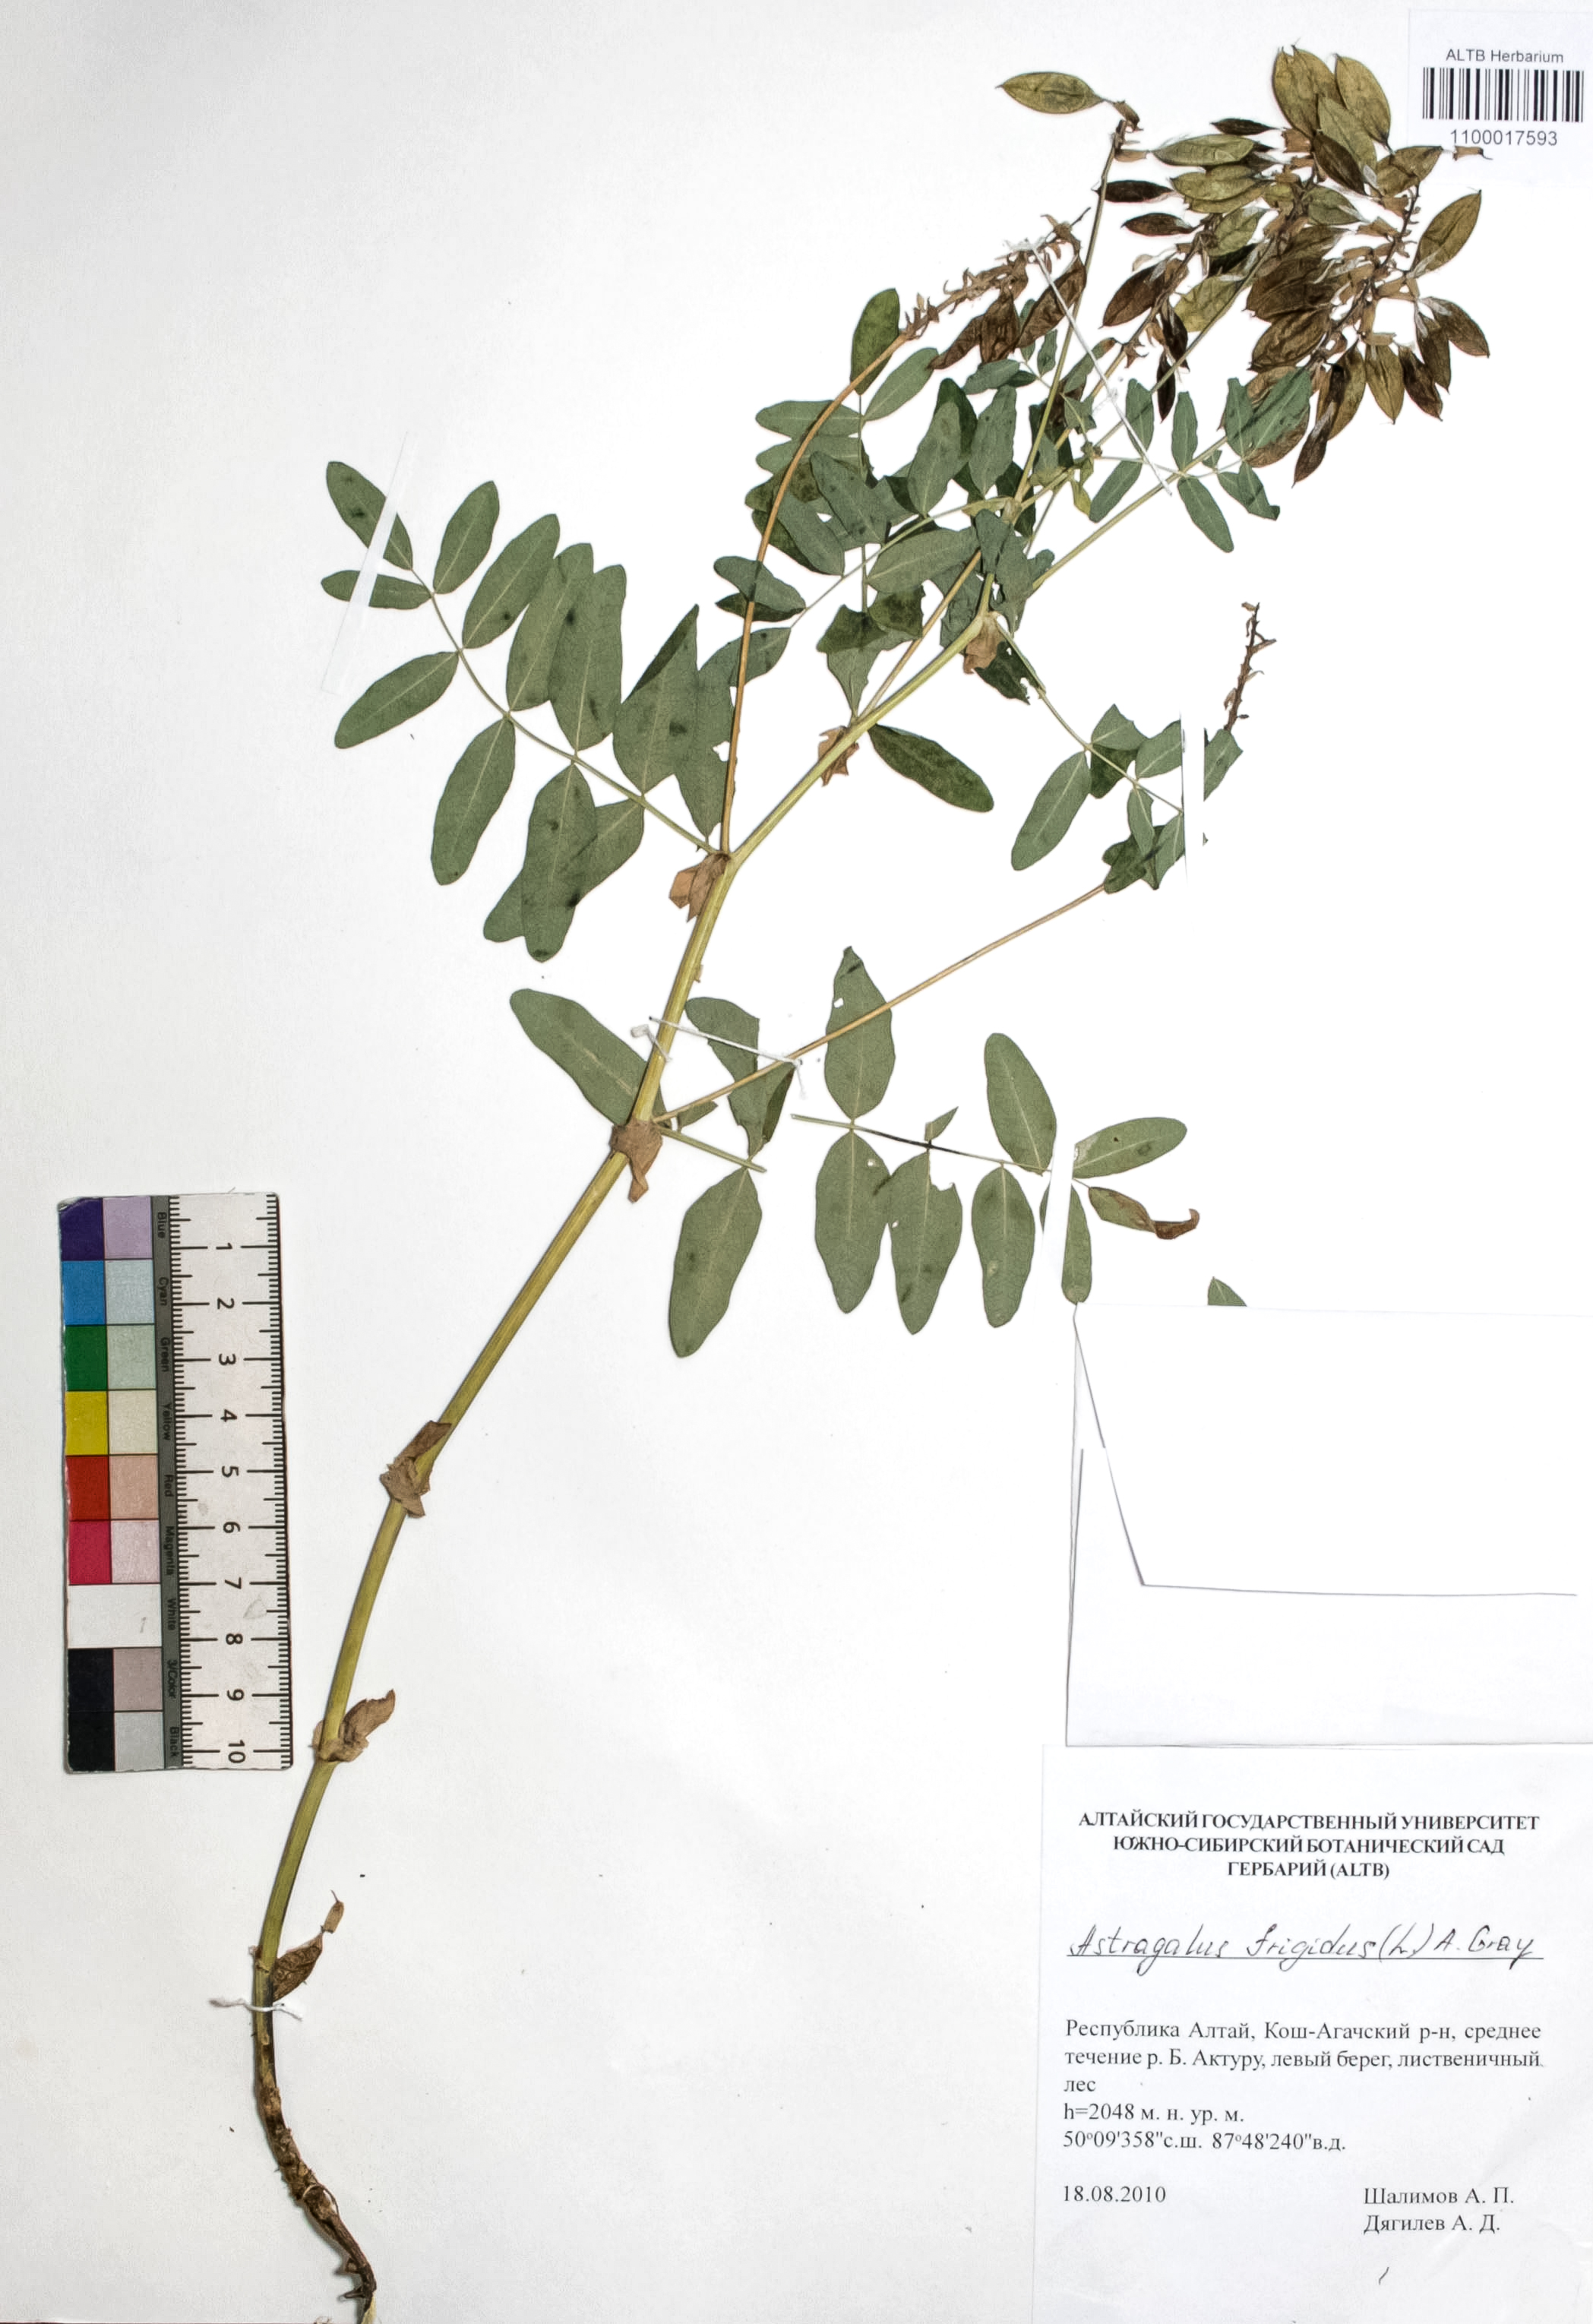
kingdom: Plantae
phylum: Tracheophyta
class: Magnoliopsida
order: Fabales
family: Fabaceae
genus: Astragalus
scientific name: Astragalus frigidus
